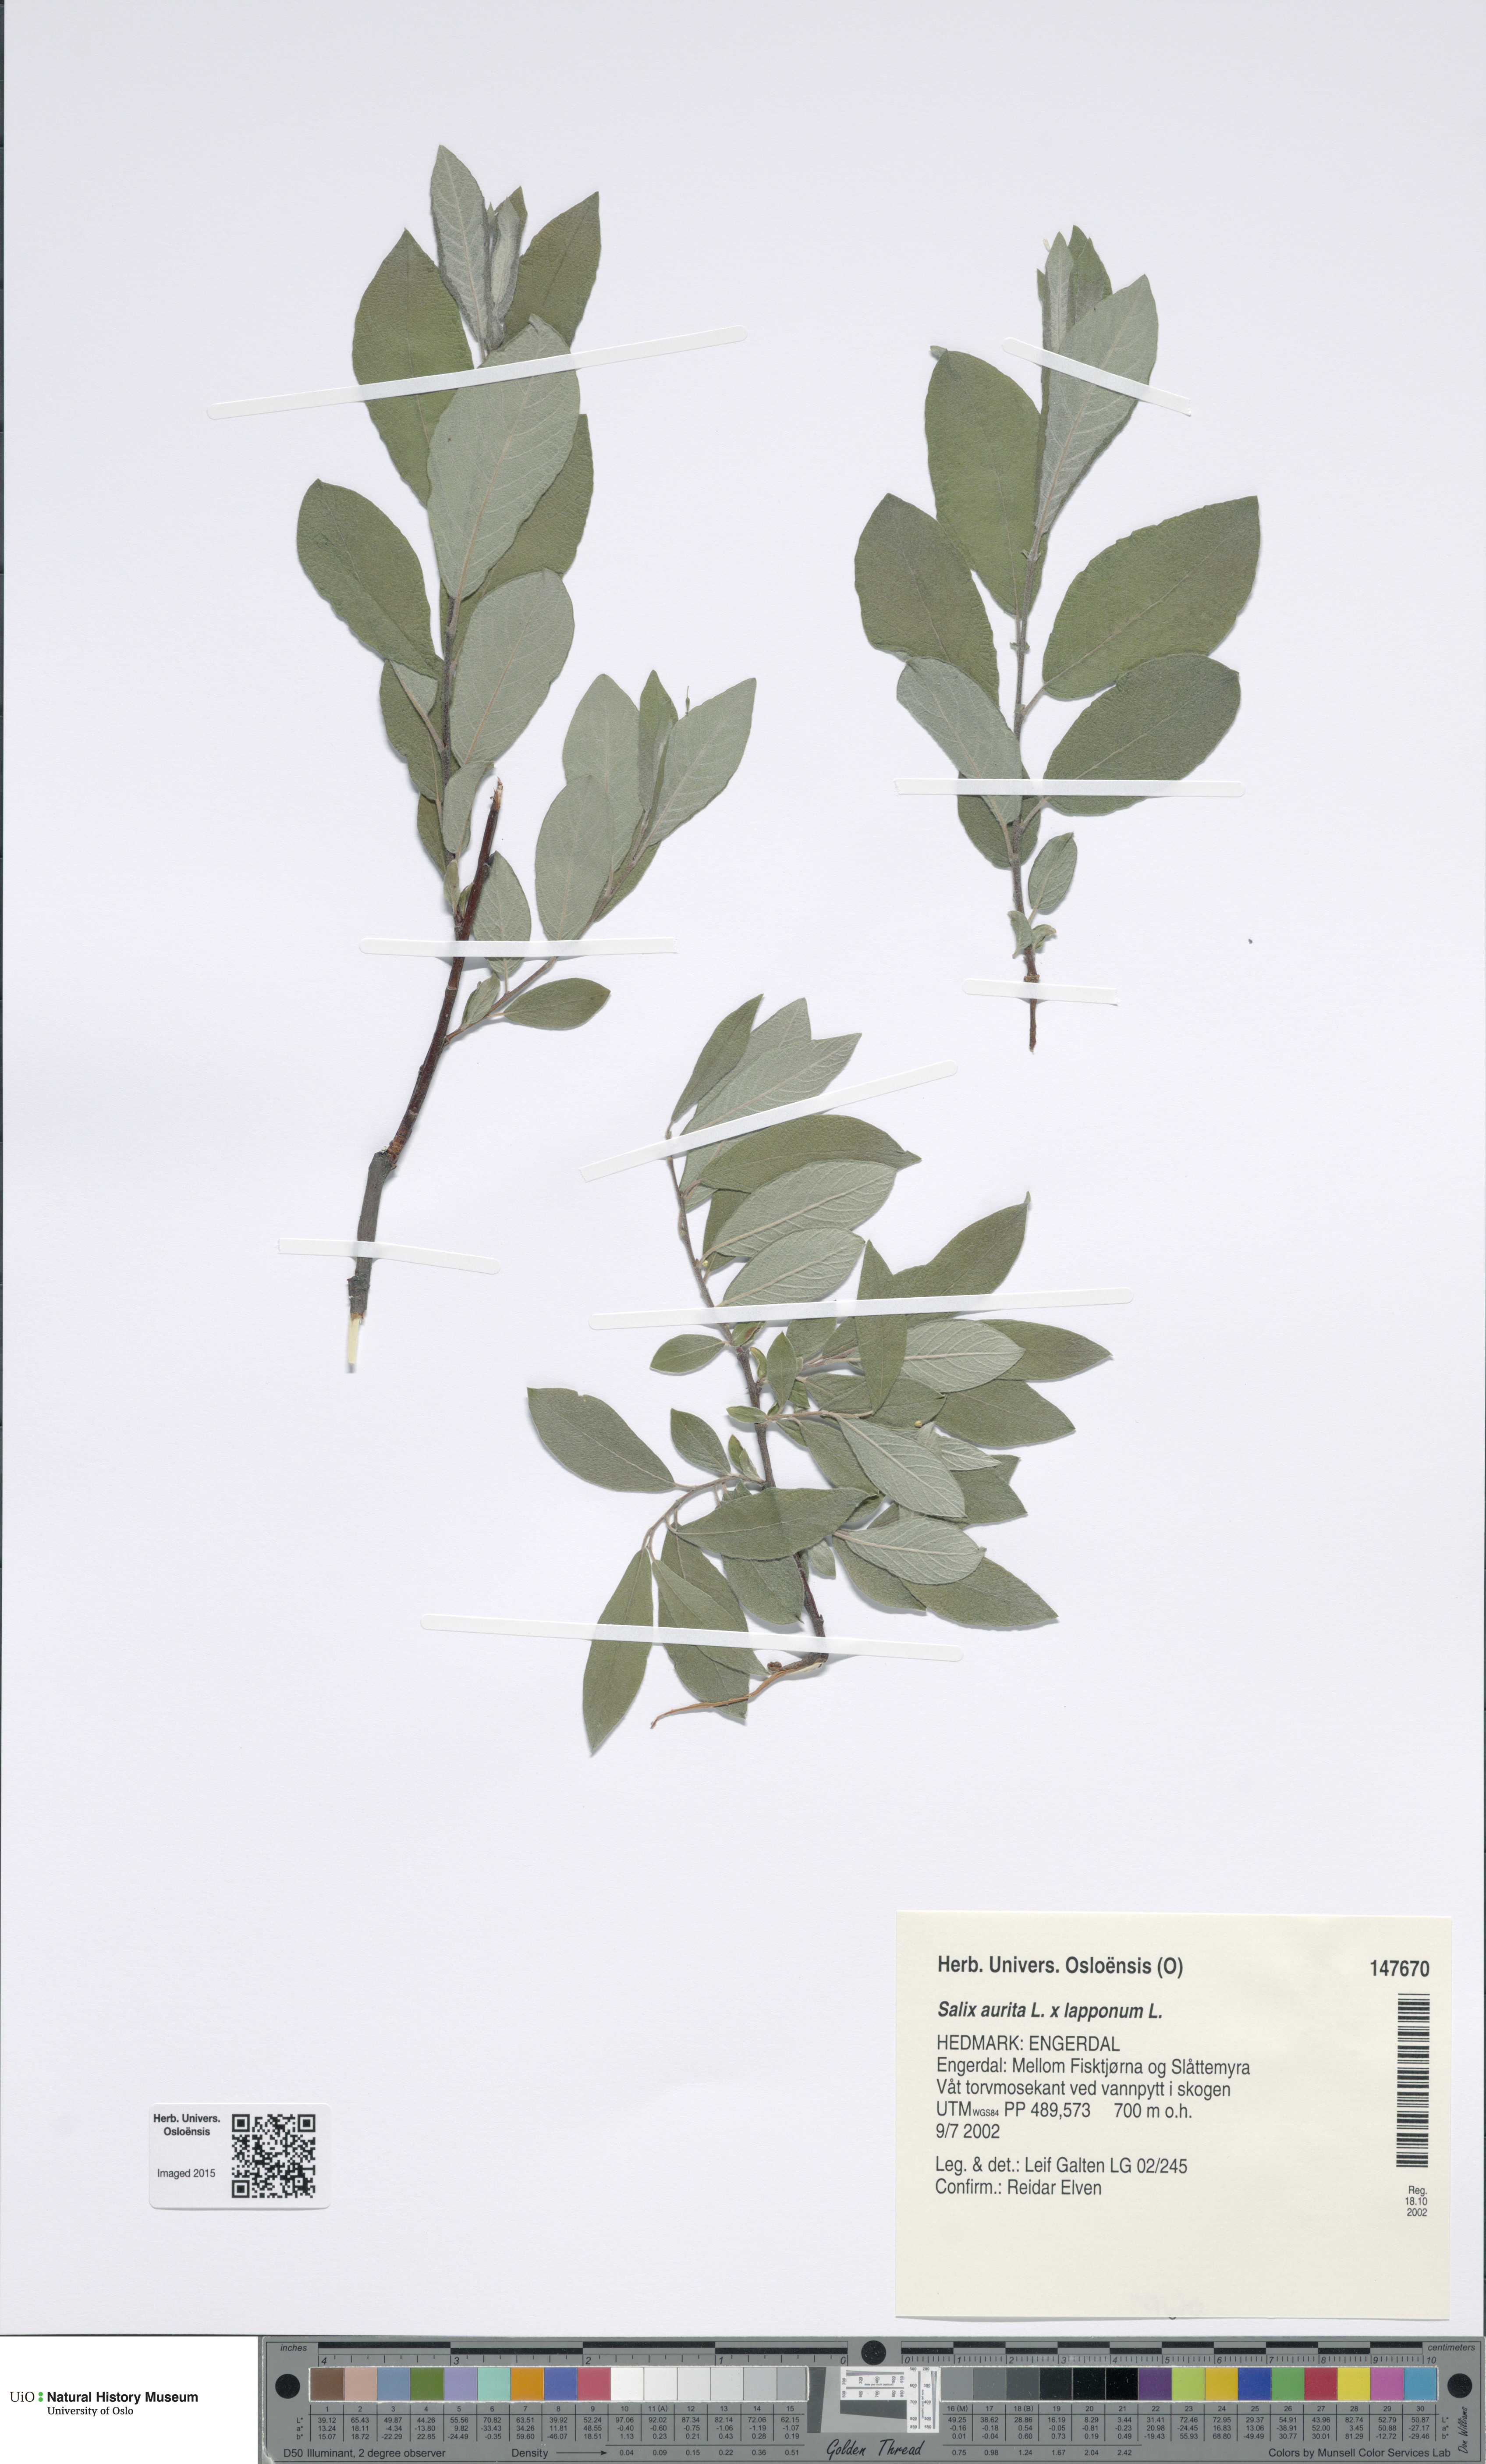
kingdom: Plantae
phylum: Tracheophyta
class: Magnoliopsida
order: Malpighiales
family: Salicaceae
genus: Salix
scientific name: Salix
